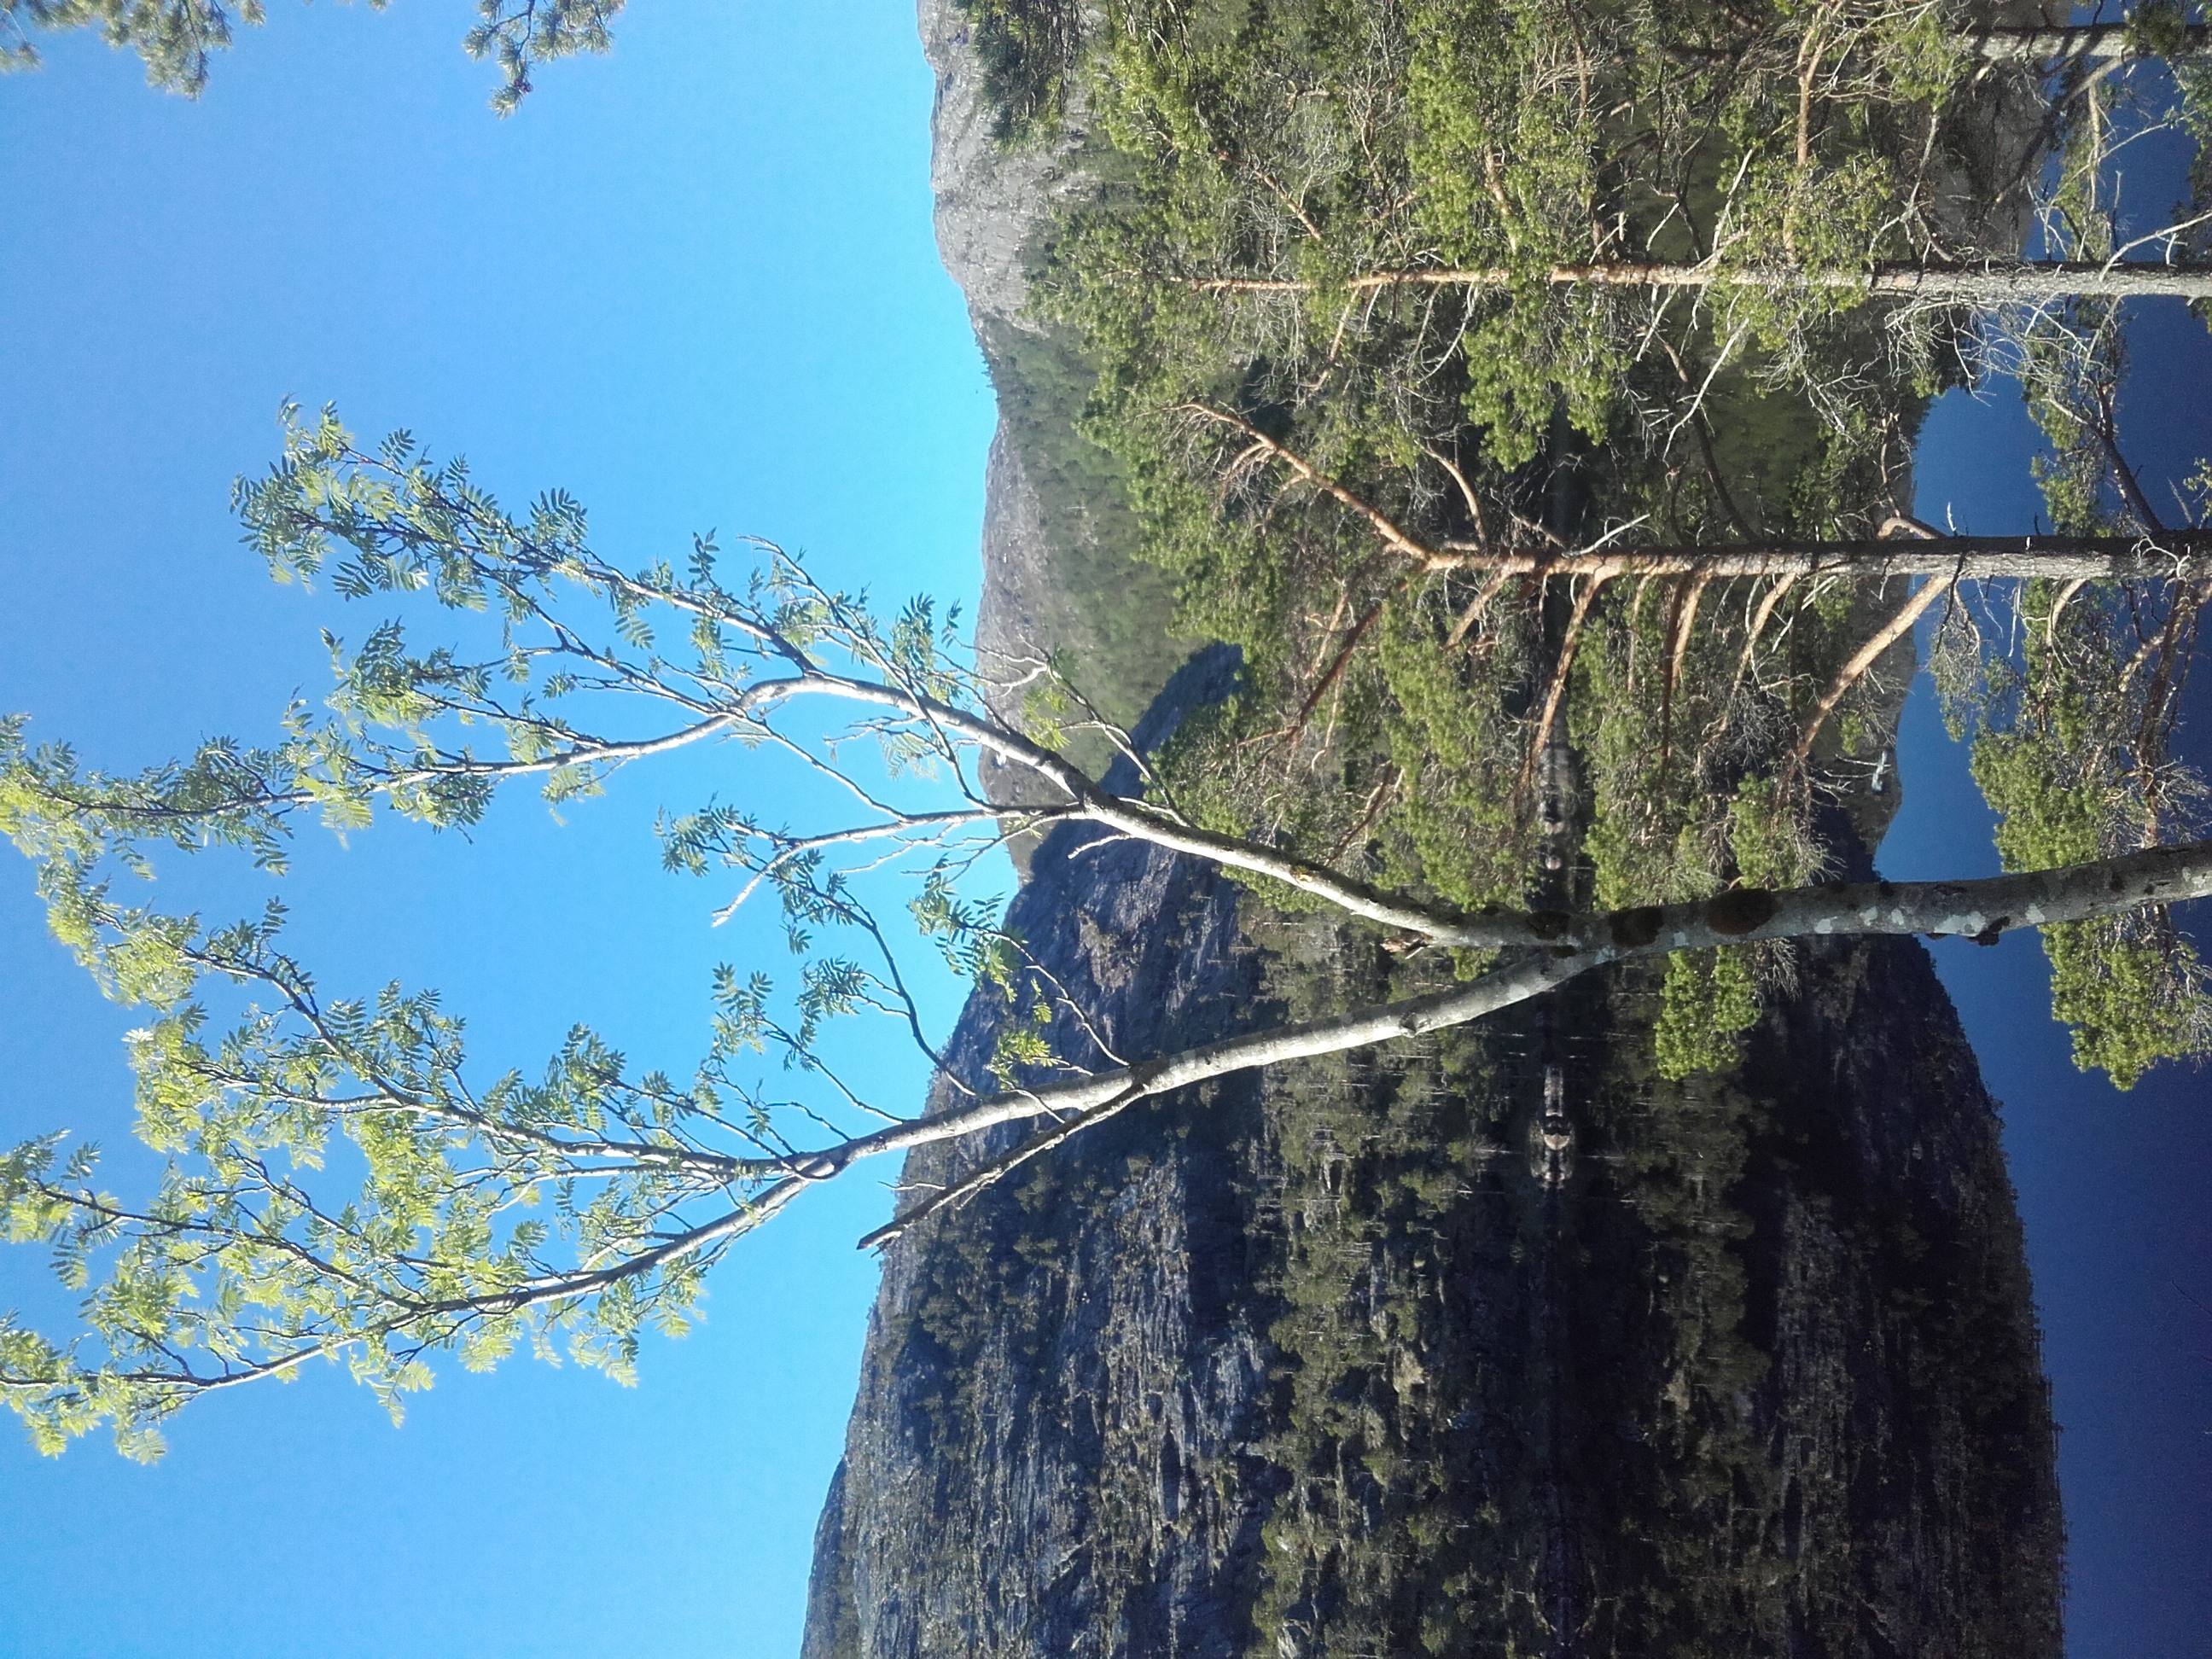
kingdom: Plantae
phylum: Tracheophyta
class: Magnoliopsida
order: Rosales
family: Rosaceae
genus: Sorbus
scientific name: Sorbus aucuparia
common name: Rowan
